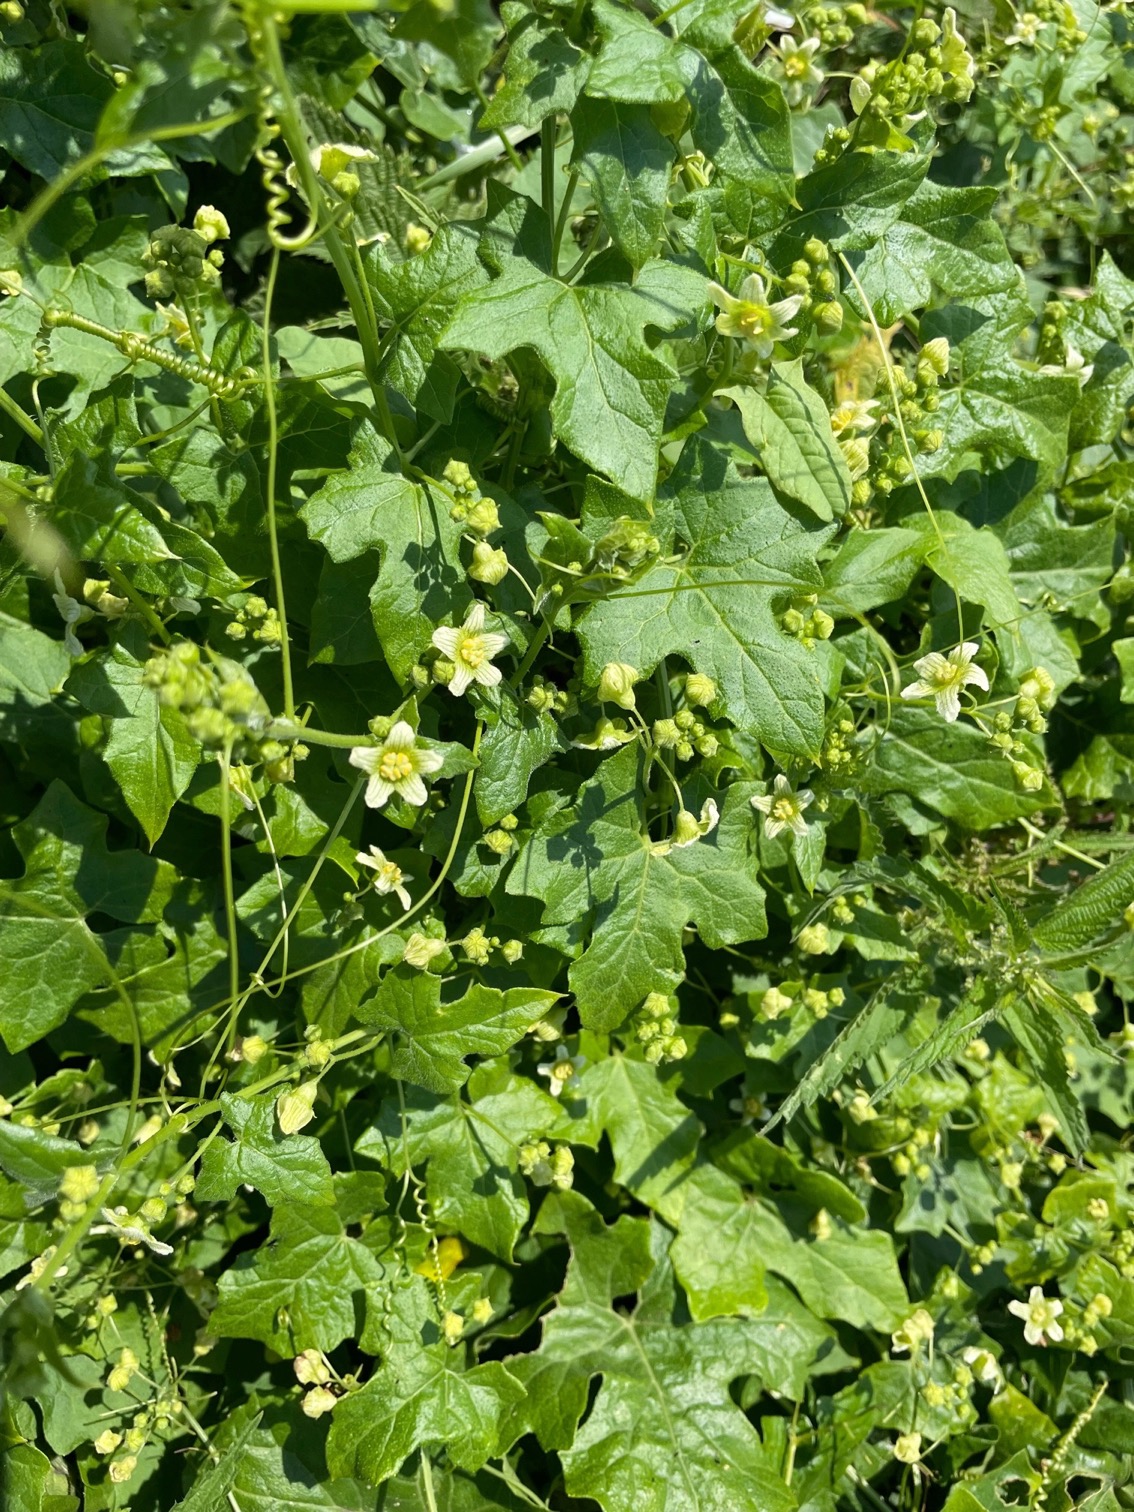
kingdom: Plantae
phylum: Tracheophyta
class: Magnoliopsida
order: Cucurbitales
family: Cucurbitaceae
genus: Bryonia
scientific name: Bryonia dioica
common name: Tvebo galdebær
